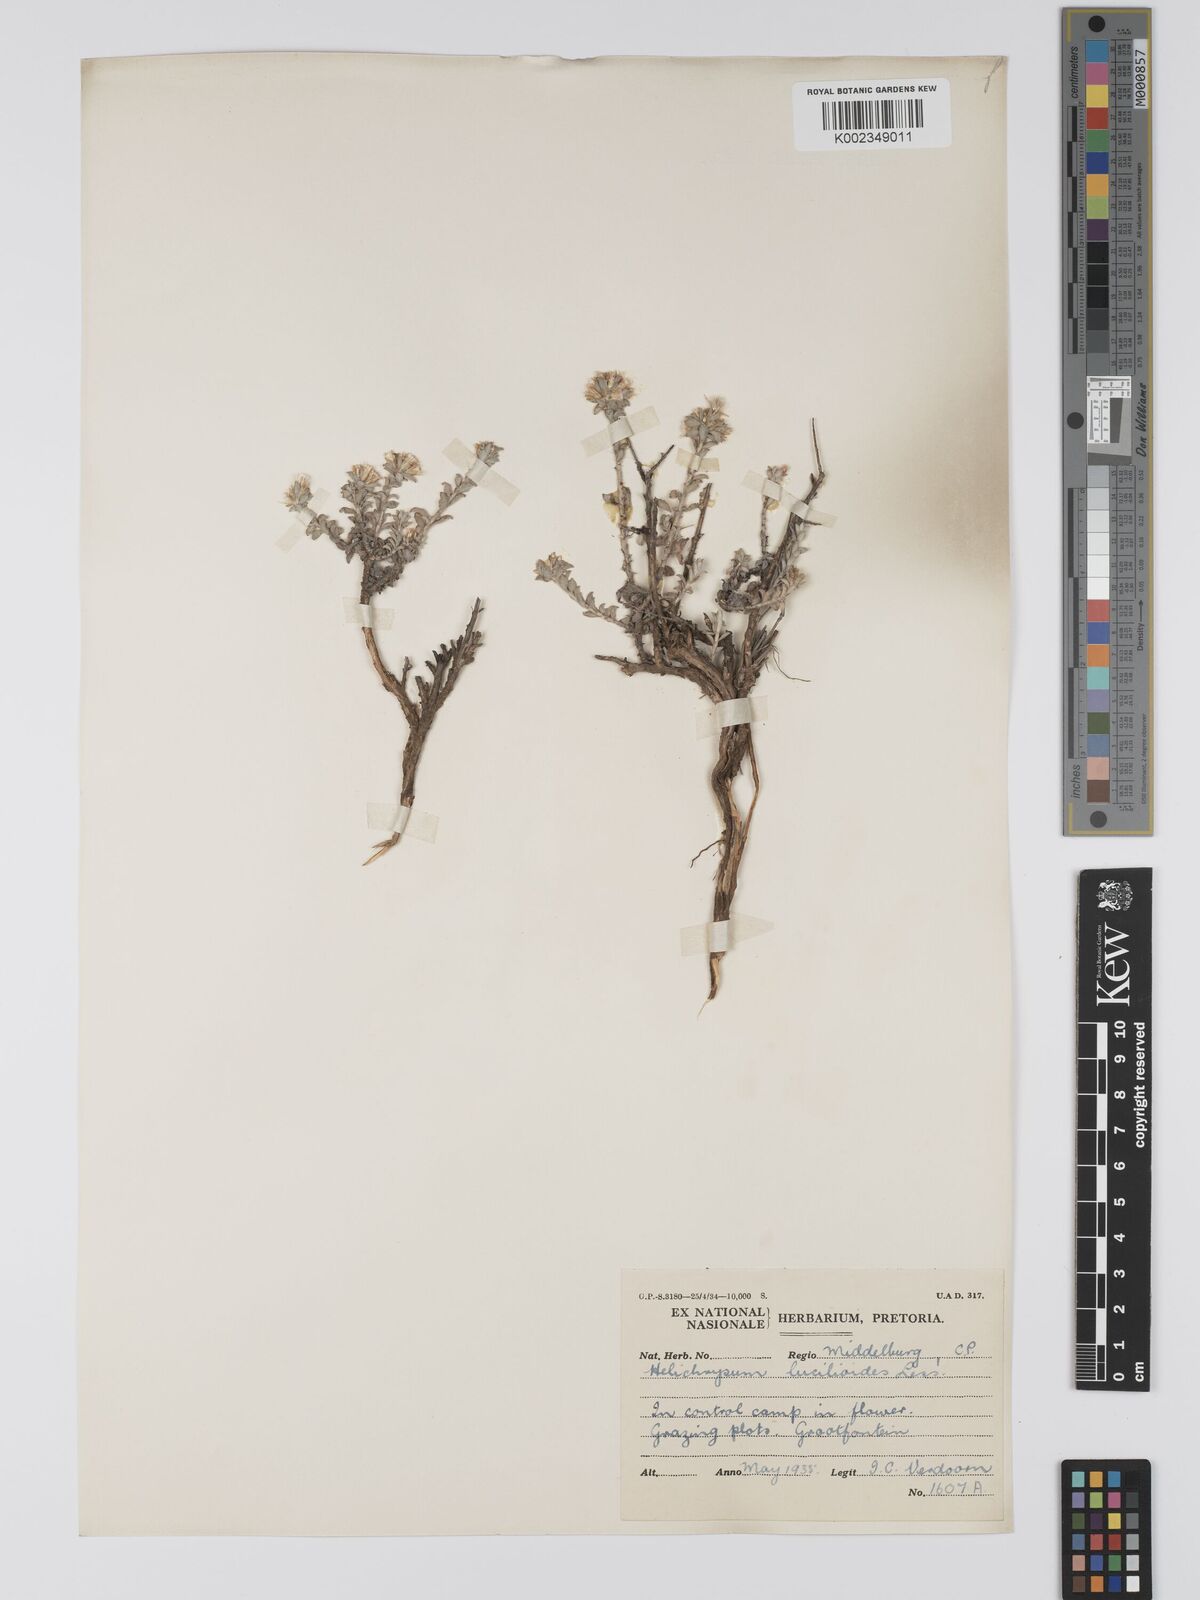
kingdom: Plantae
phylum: Tracheophyta
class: Magnoliopsida
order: Asterales
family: Asteraceae
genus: Helichrysum
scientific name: Helichrysum lucilioides
